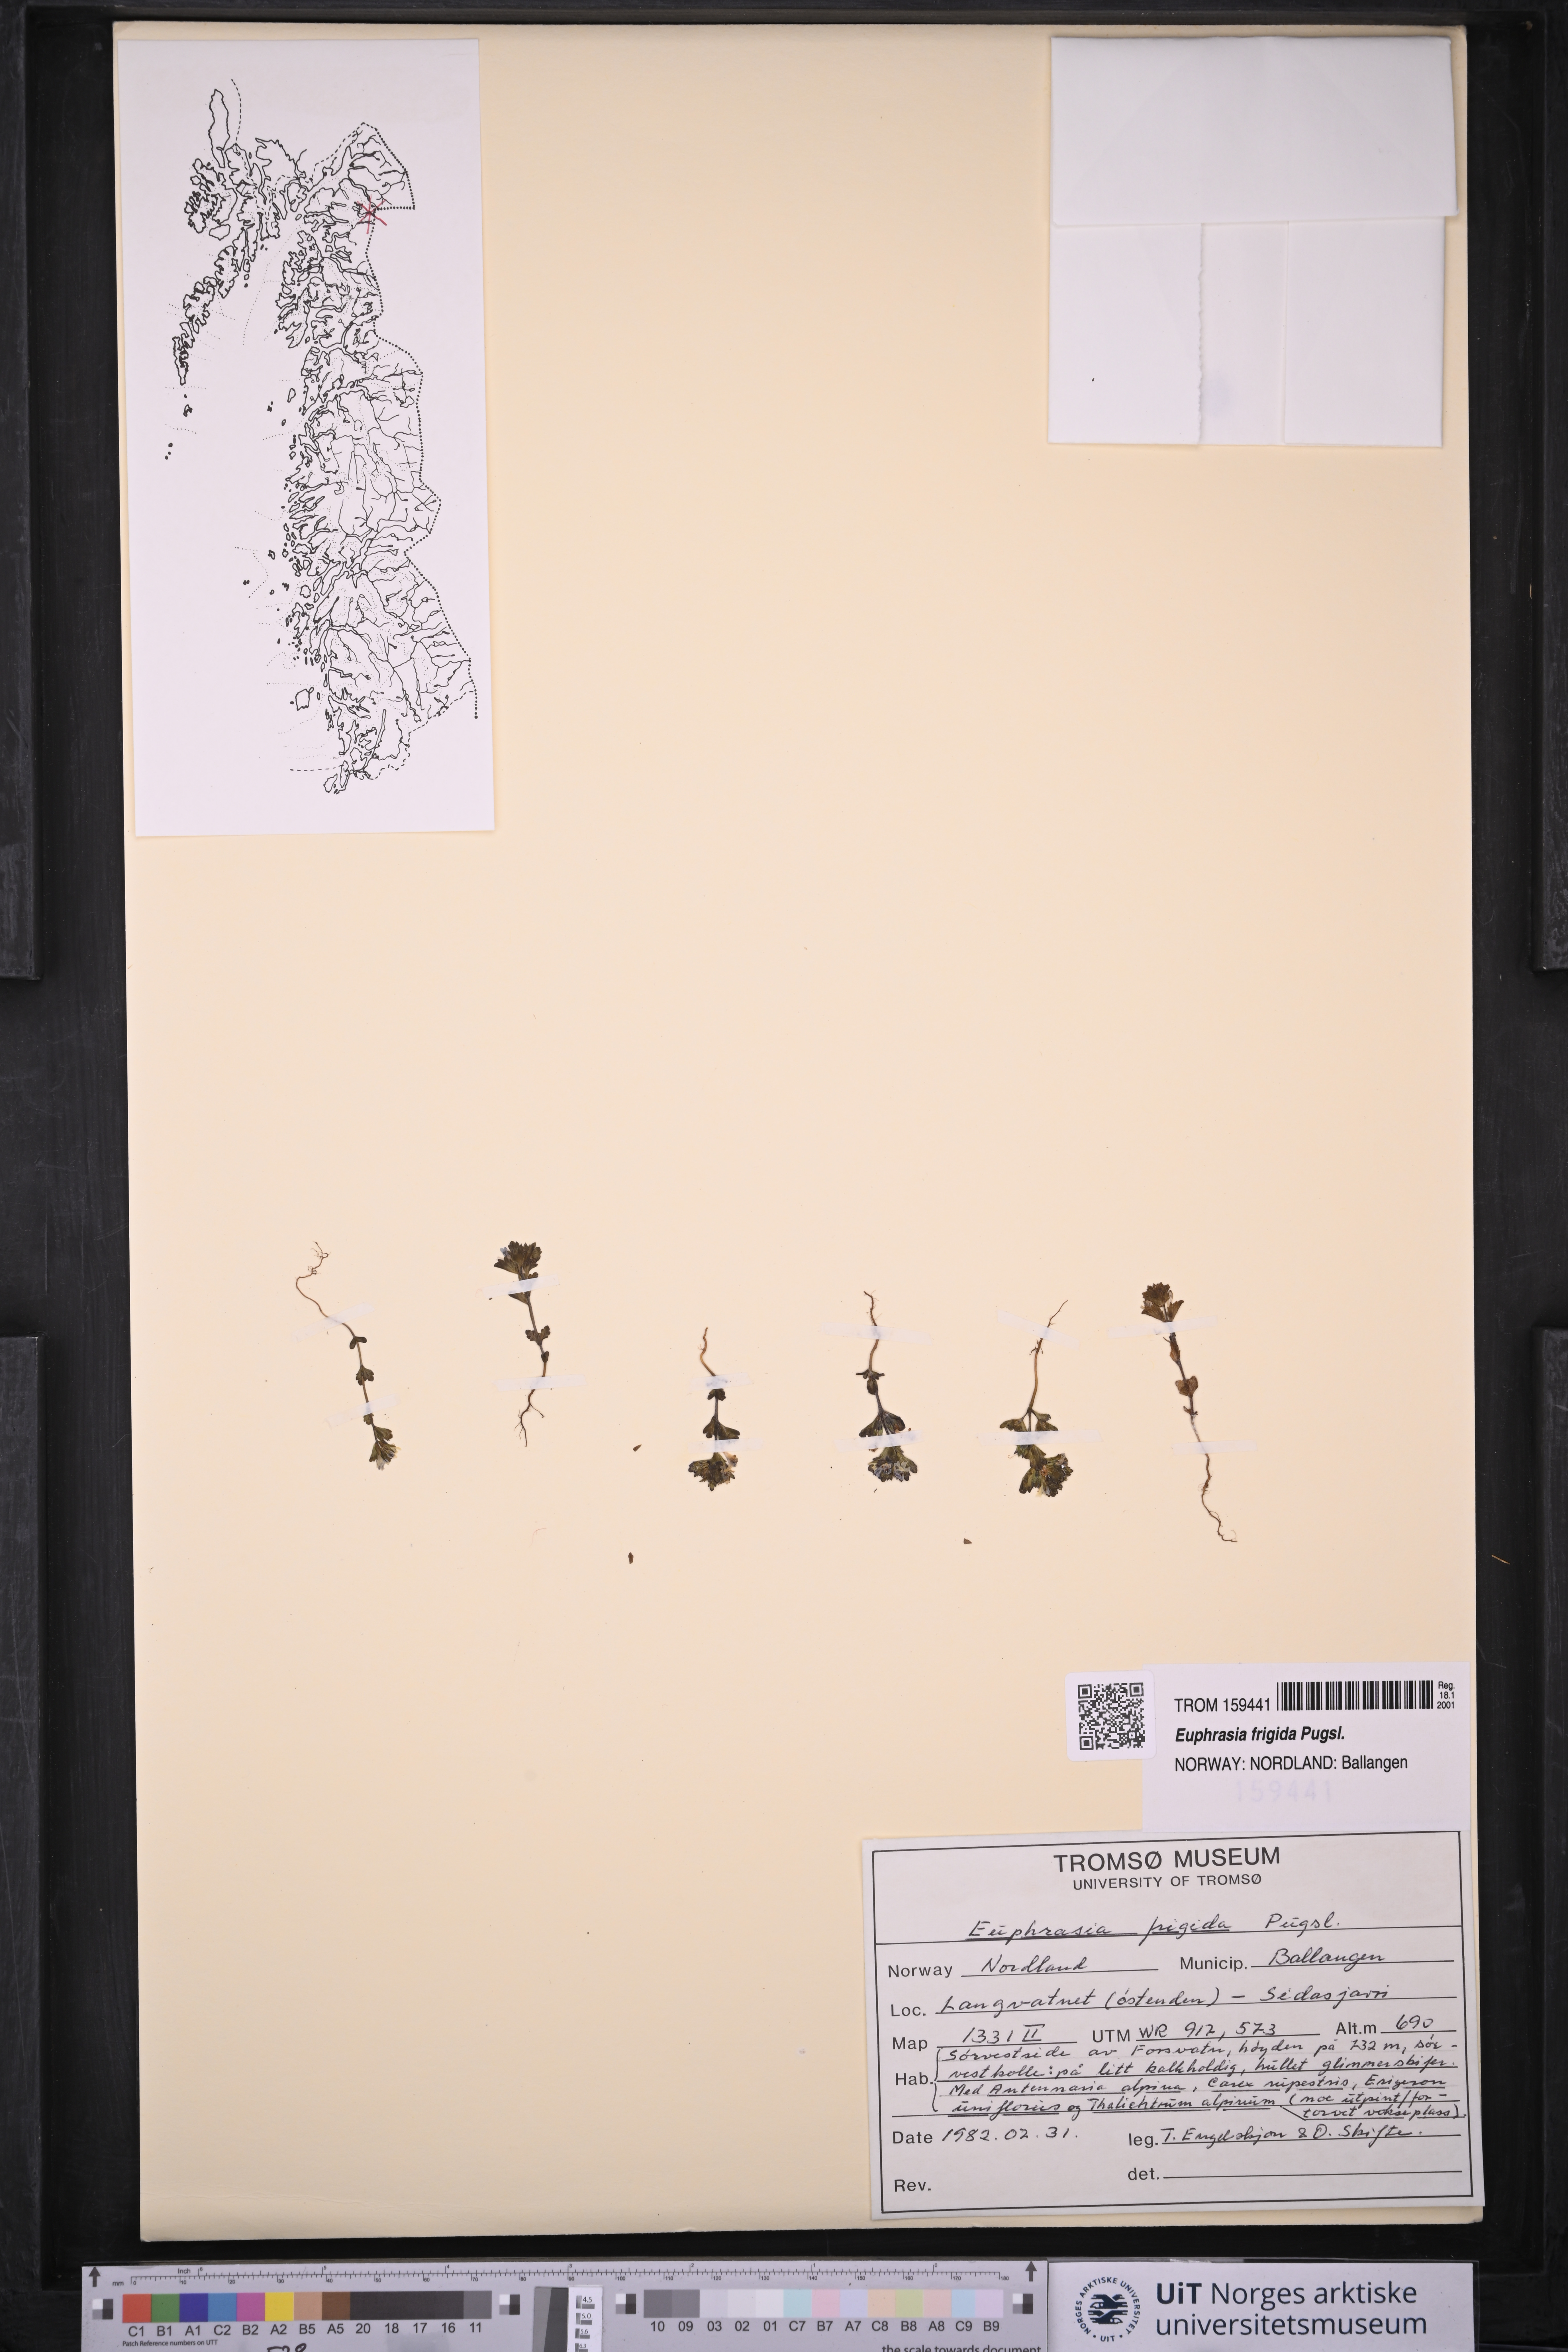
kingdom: Plantae
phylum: Tracheophyta
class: Magnoliopsida
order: Lamiales
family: Orobanchaceae
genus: Euphrasia
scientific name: Euphrasia frigida
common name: An eyebright
